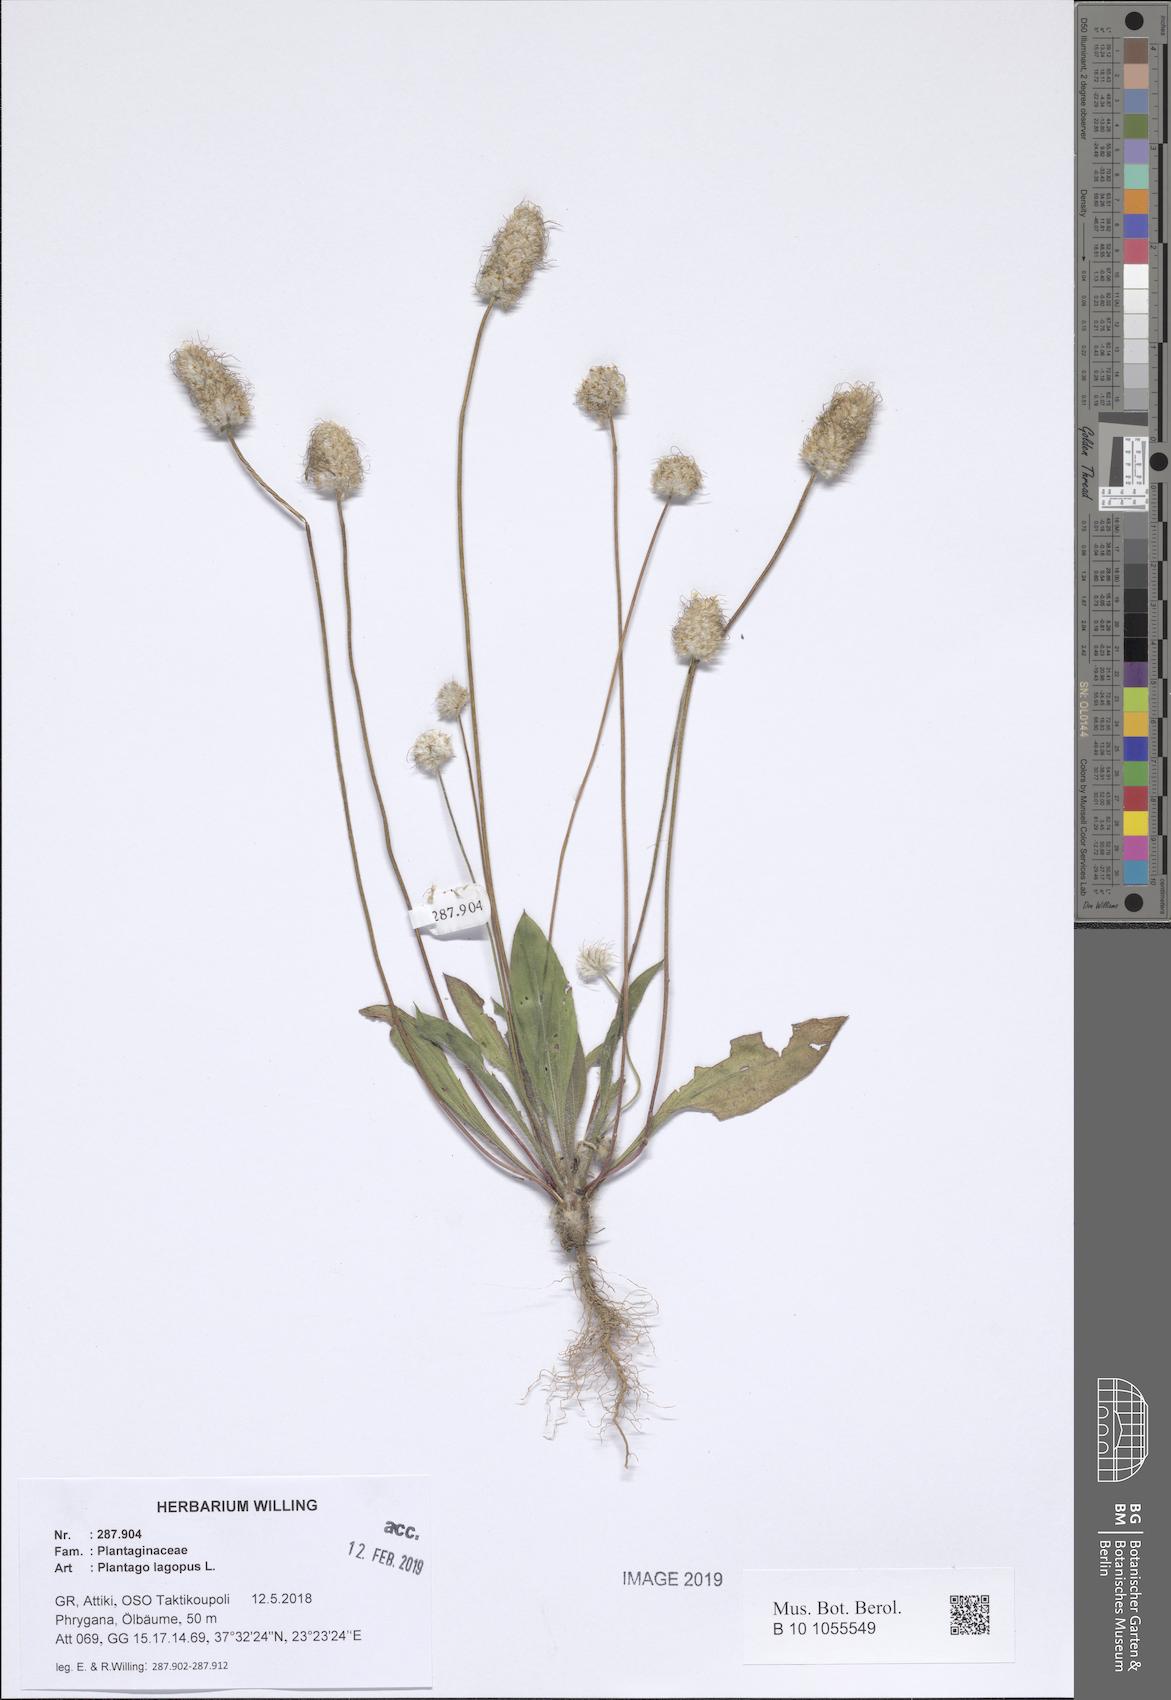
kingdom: Plantae
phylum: Tracheophyta
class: Magnoliopsida
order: Lamiales
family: Plantaginaceae
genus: Plantago
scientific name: Plantago lagopus
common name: Hare-foot plantain
